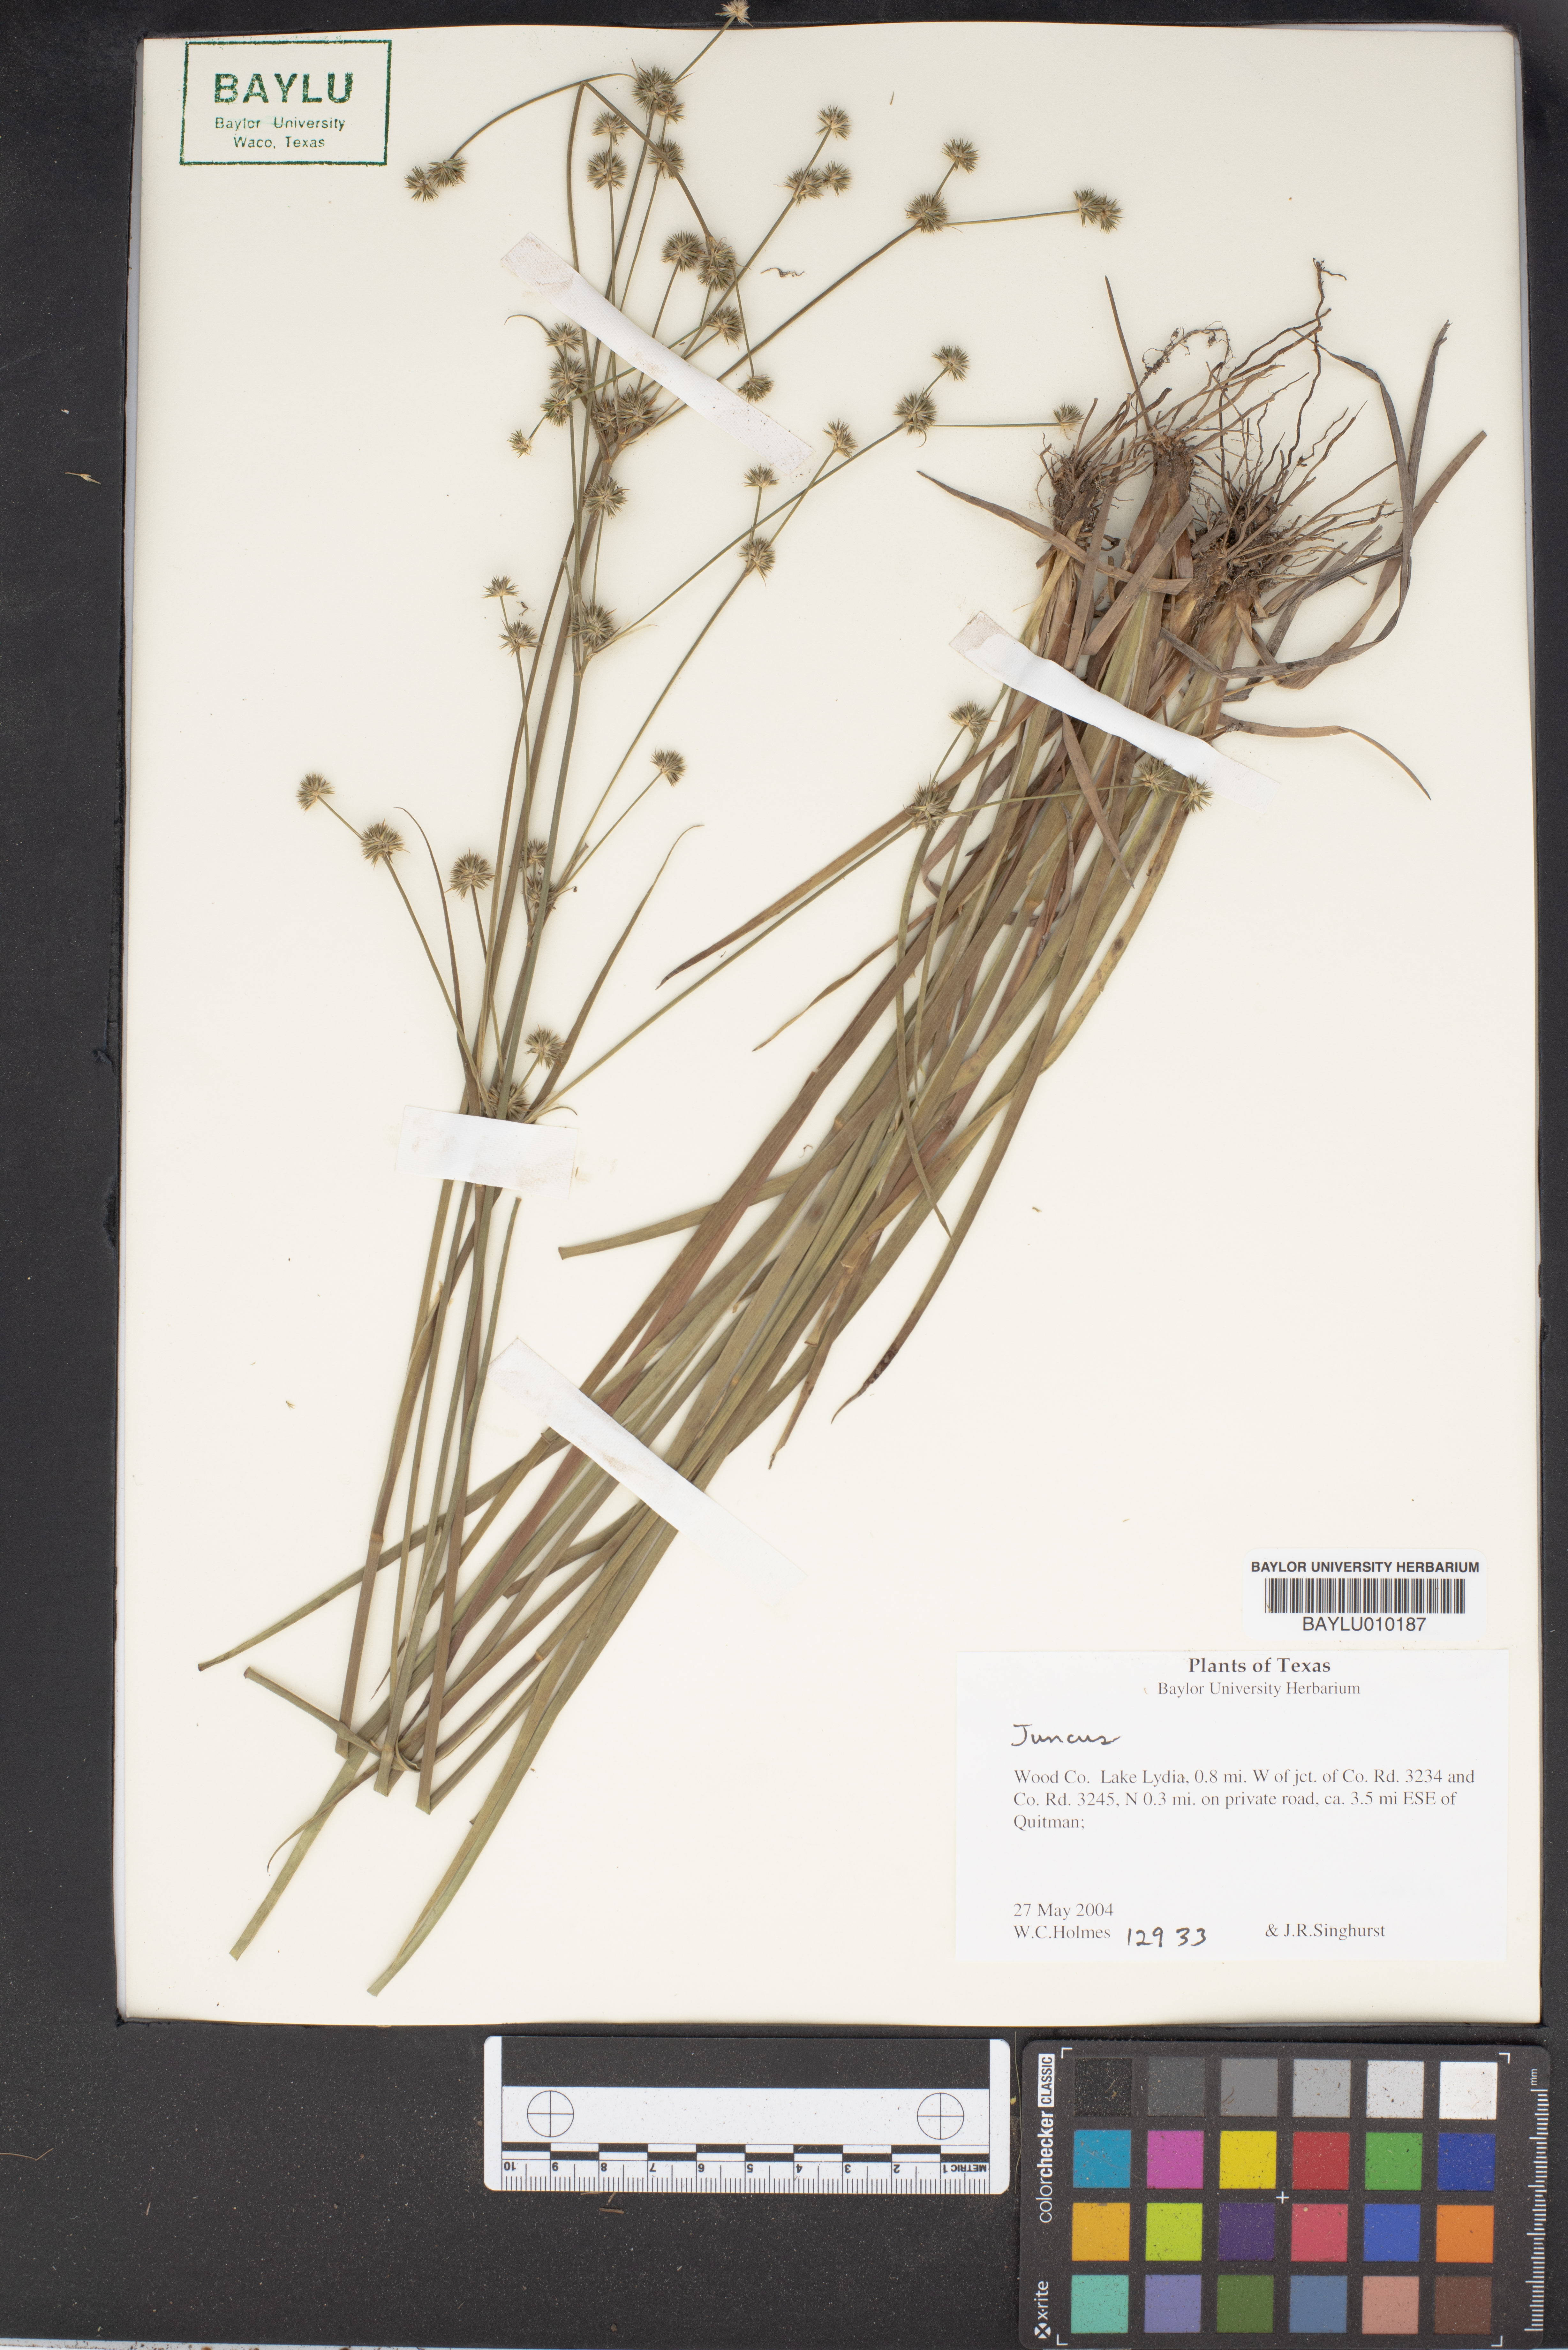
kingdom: Plantae
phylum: Tracheophyta
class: Liliopsida
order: Poales
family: Juncaceae
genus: Juncus
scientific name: Juncus
